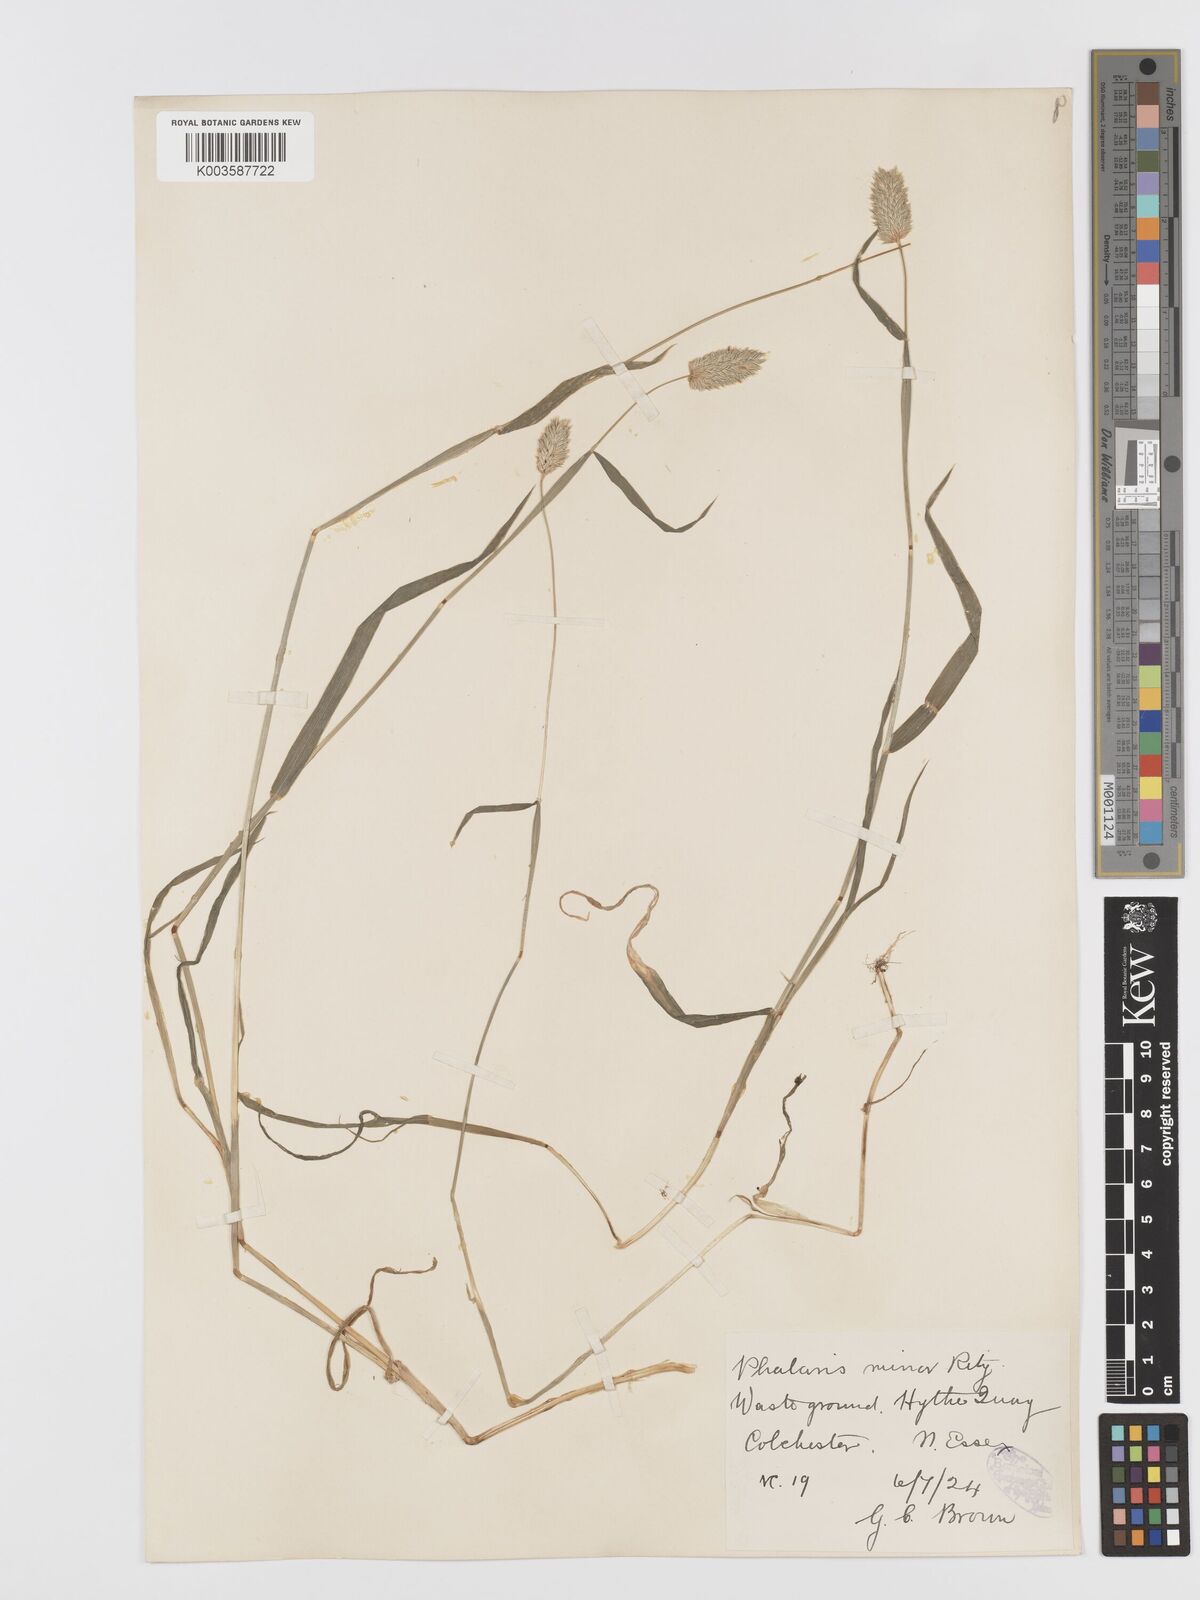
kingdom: Plantae
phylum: Tracheophyta
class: Liliopsida
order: Poales
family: Poaceae
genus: Phalaris
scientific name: Phalaris minor
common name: Littleseed canarygrass
